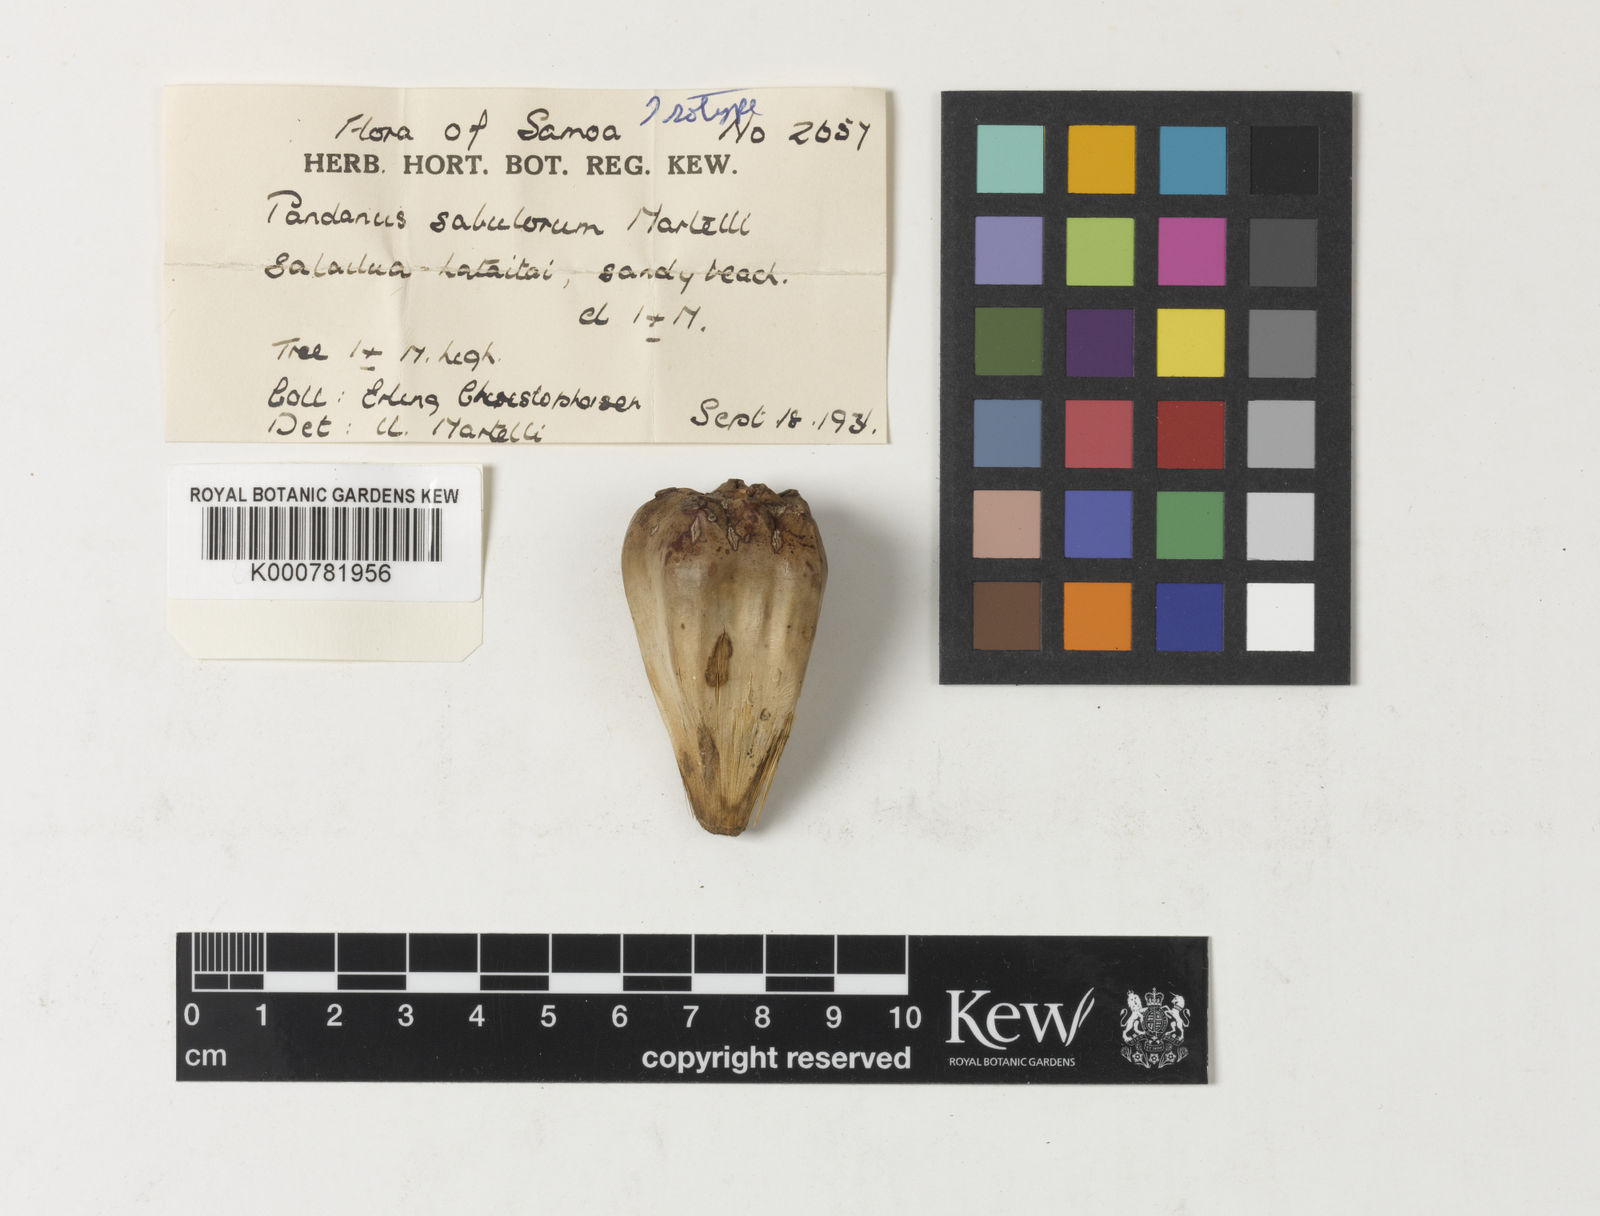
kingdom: Plantae
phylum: Tracheophyta
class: Liliopsida
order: Pandanales
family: Pandanaceae
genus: Pandanus
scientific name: Pandanus subulorum
